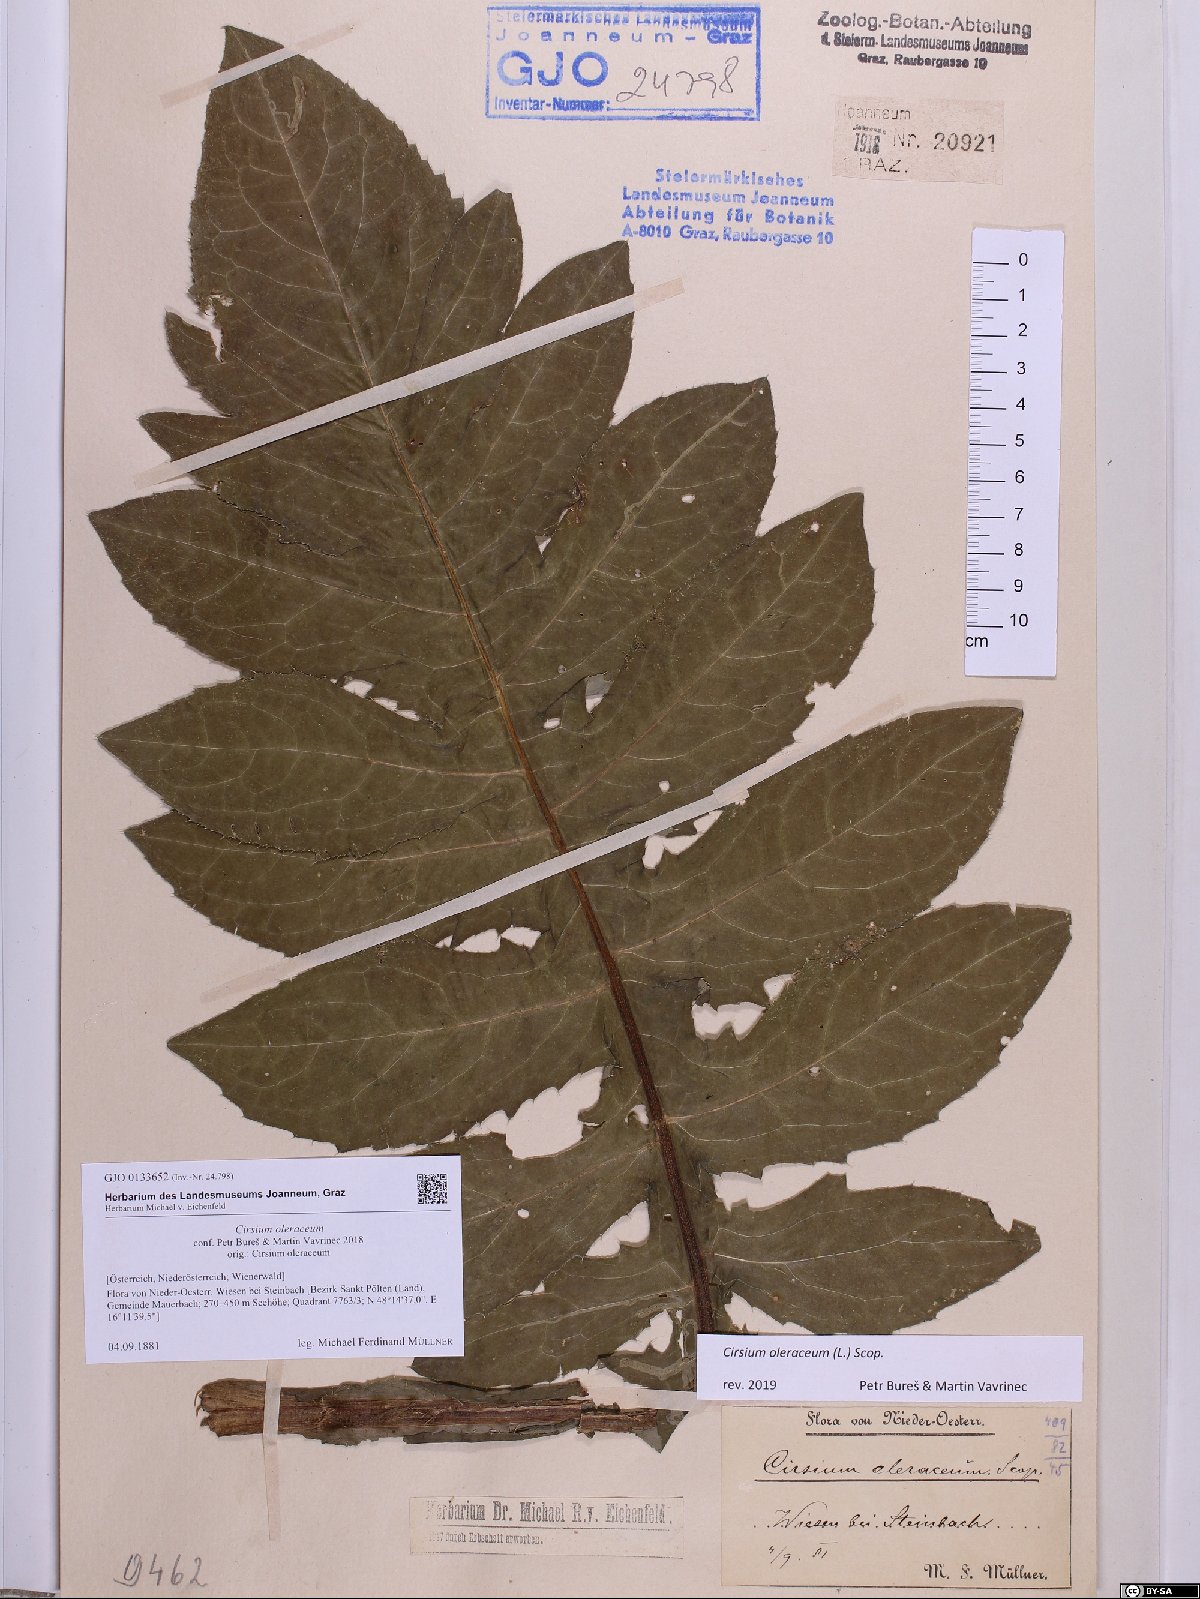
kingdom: Plantae
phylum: Tracheophyta
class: Magnoliopsida
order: Asterales
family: Asteraceae
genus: Cirsium
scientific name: Cirsium oleraceum
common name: Cabbage thistle
